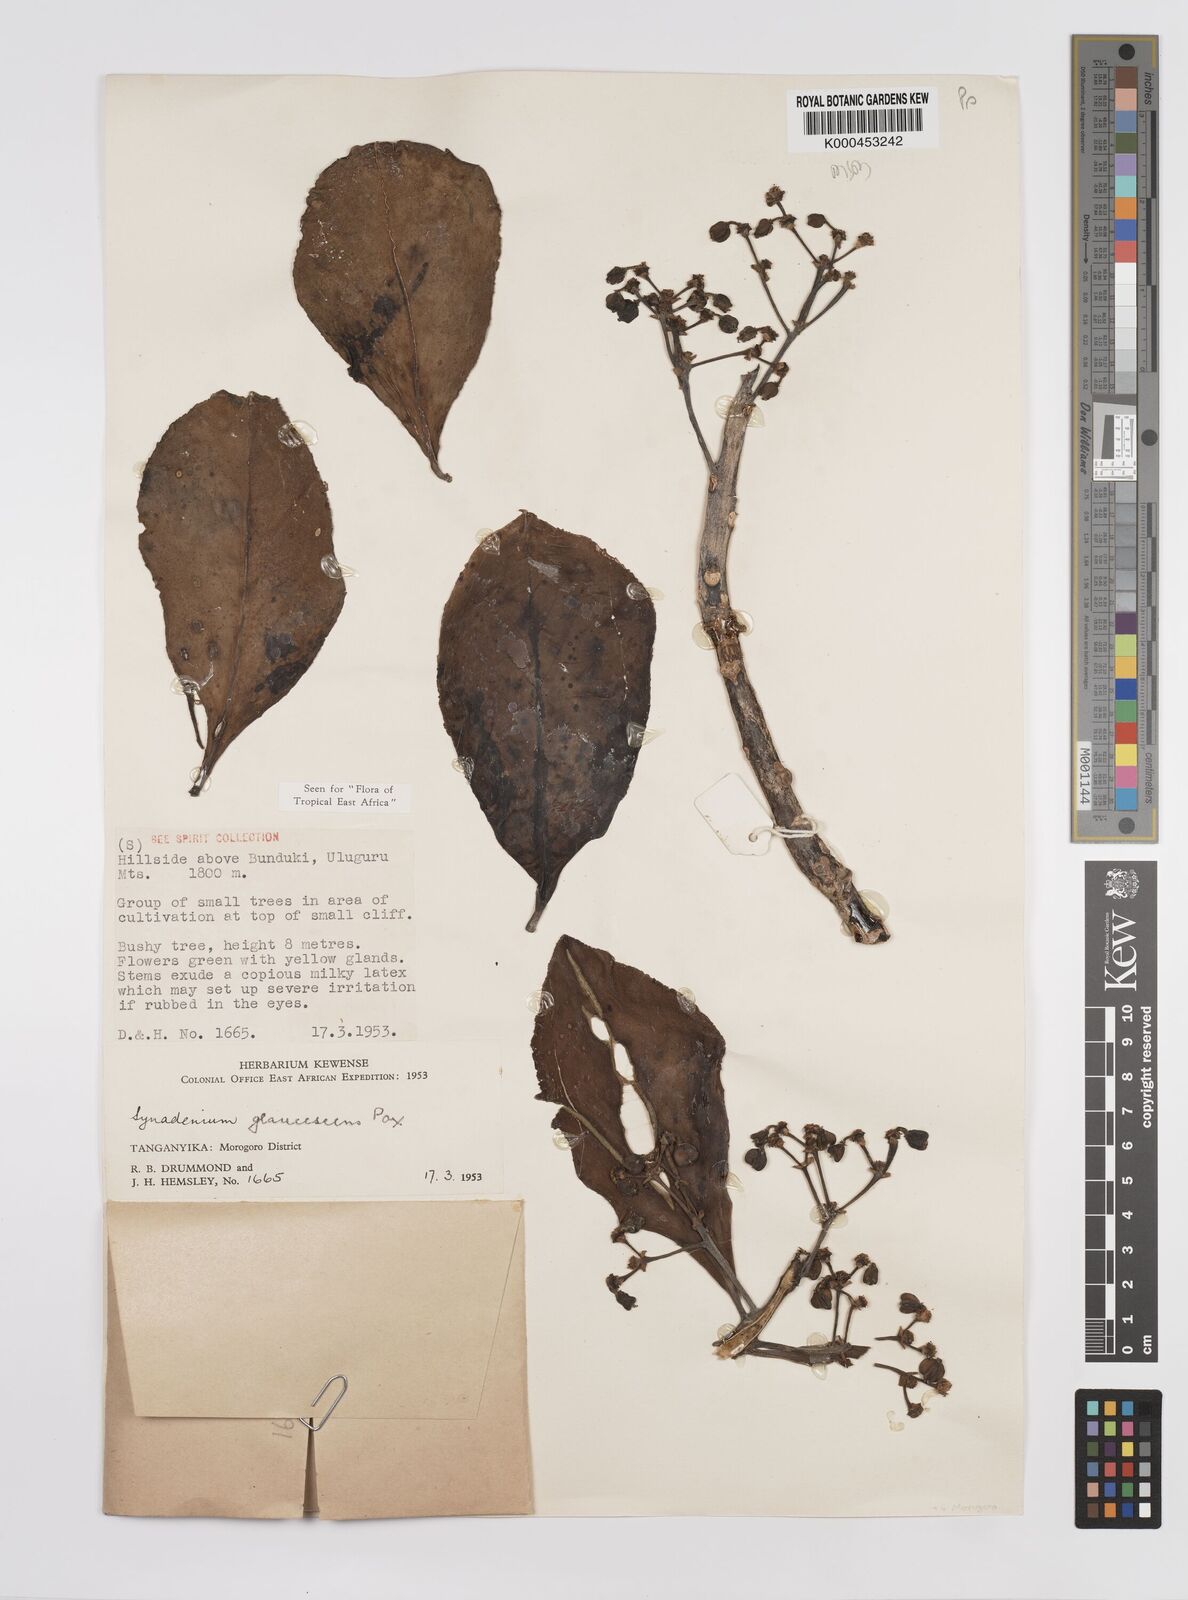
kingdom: Plantae
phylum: Tracheophyta
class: Magnoliopsida
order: Malpighiales
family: Euphorbiaceae
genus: Euphorbia
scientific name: Euphorbia neoglaucescens
